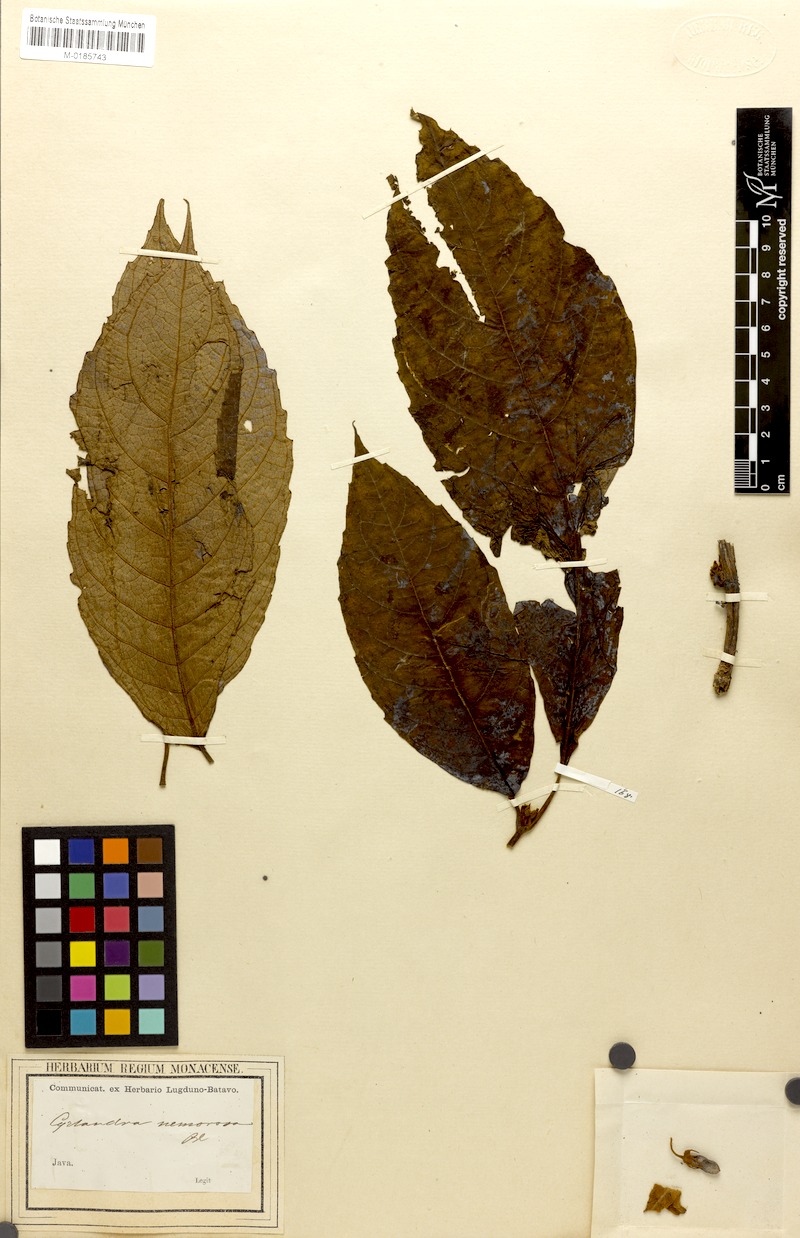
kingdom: Plantae
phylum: Tracheophyta
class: Magnoliopsida
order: Lamiales
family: Gesneriaceae
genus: Cyrtandra
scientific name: Cyrtandra nemorosa
